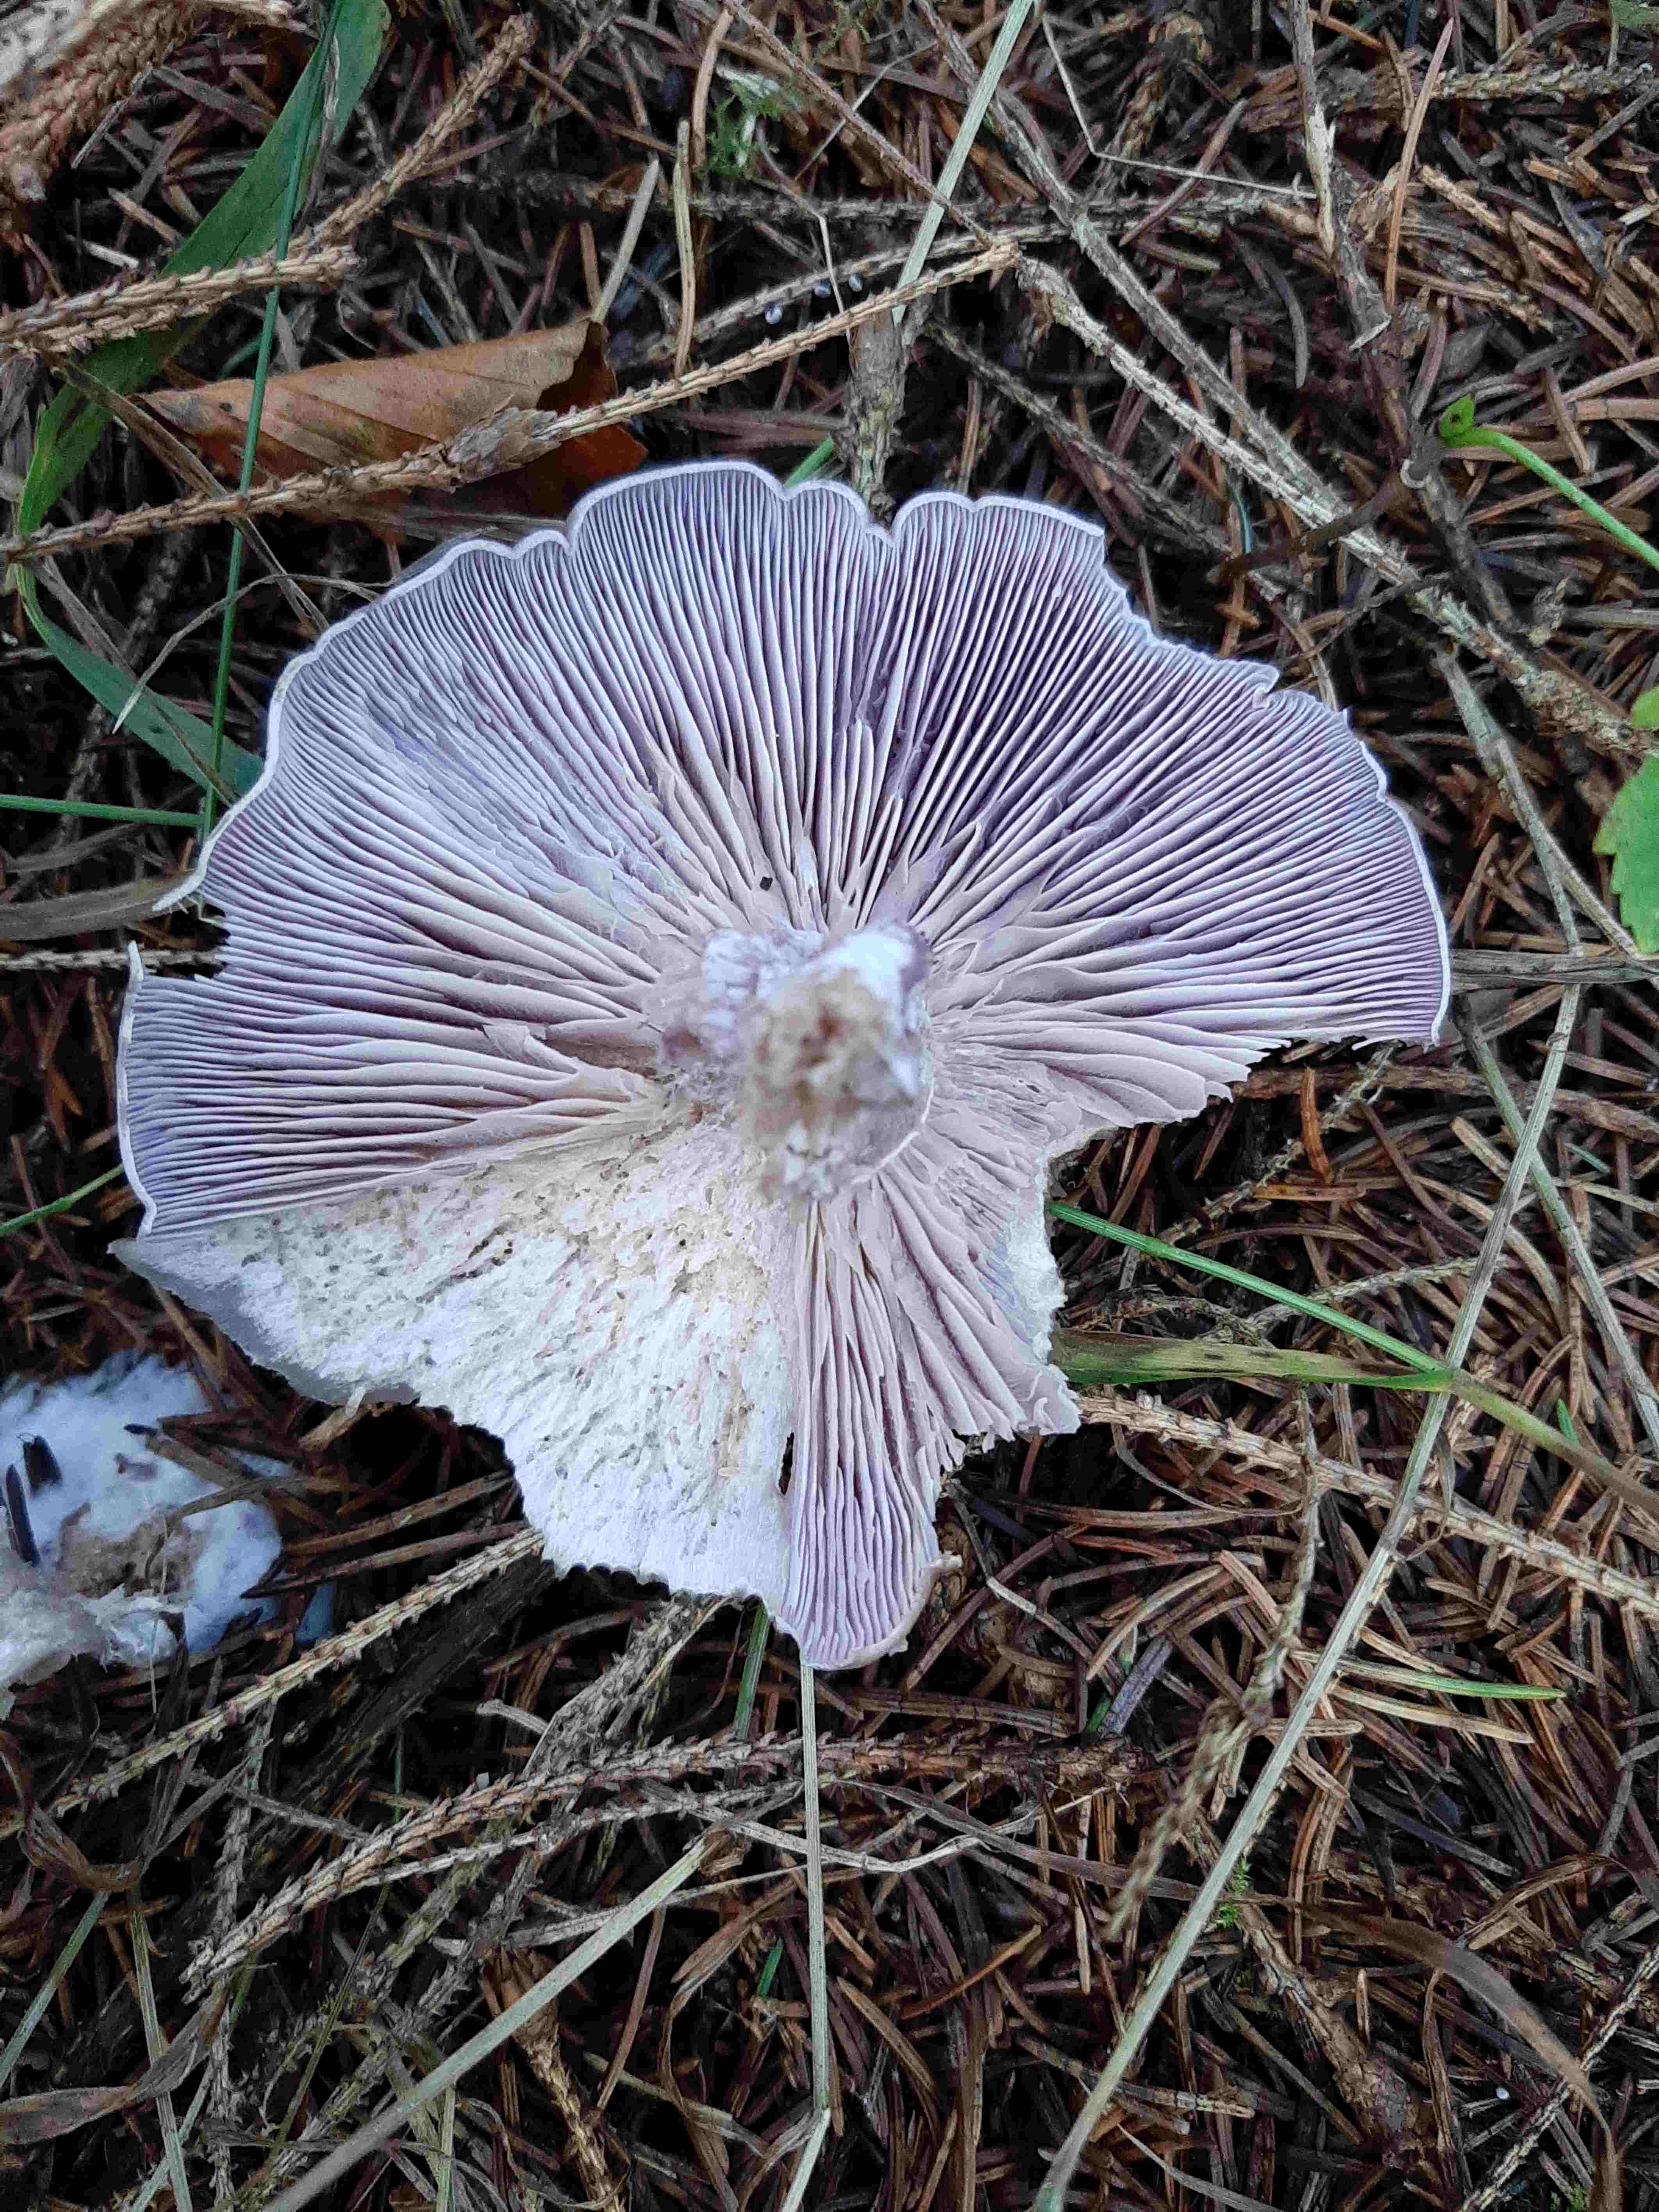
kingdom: Fungi
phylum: Basidiomycota
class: Agaricomycetes
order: Agaricales
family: Tricholomataceae
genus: Lepista
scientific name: Lepista nuda
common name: violet hekseringshat
